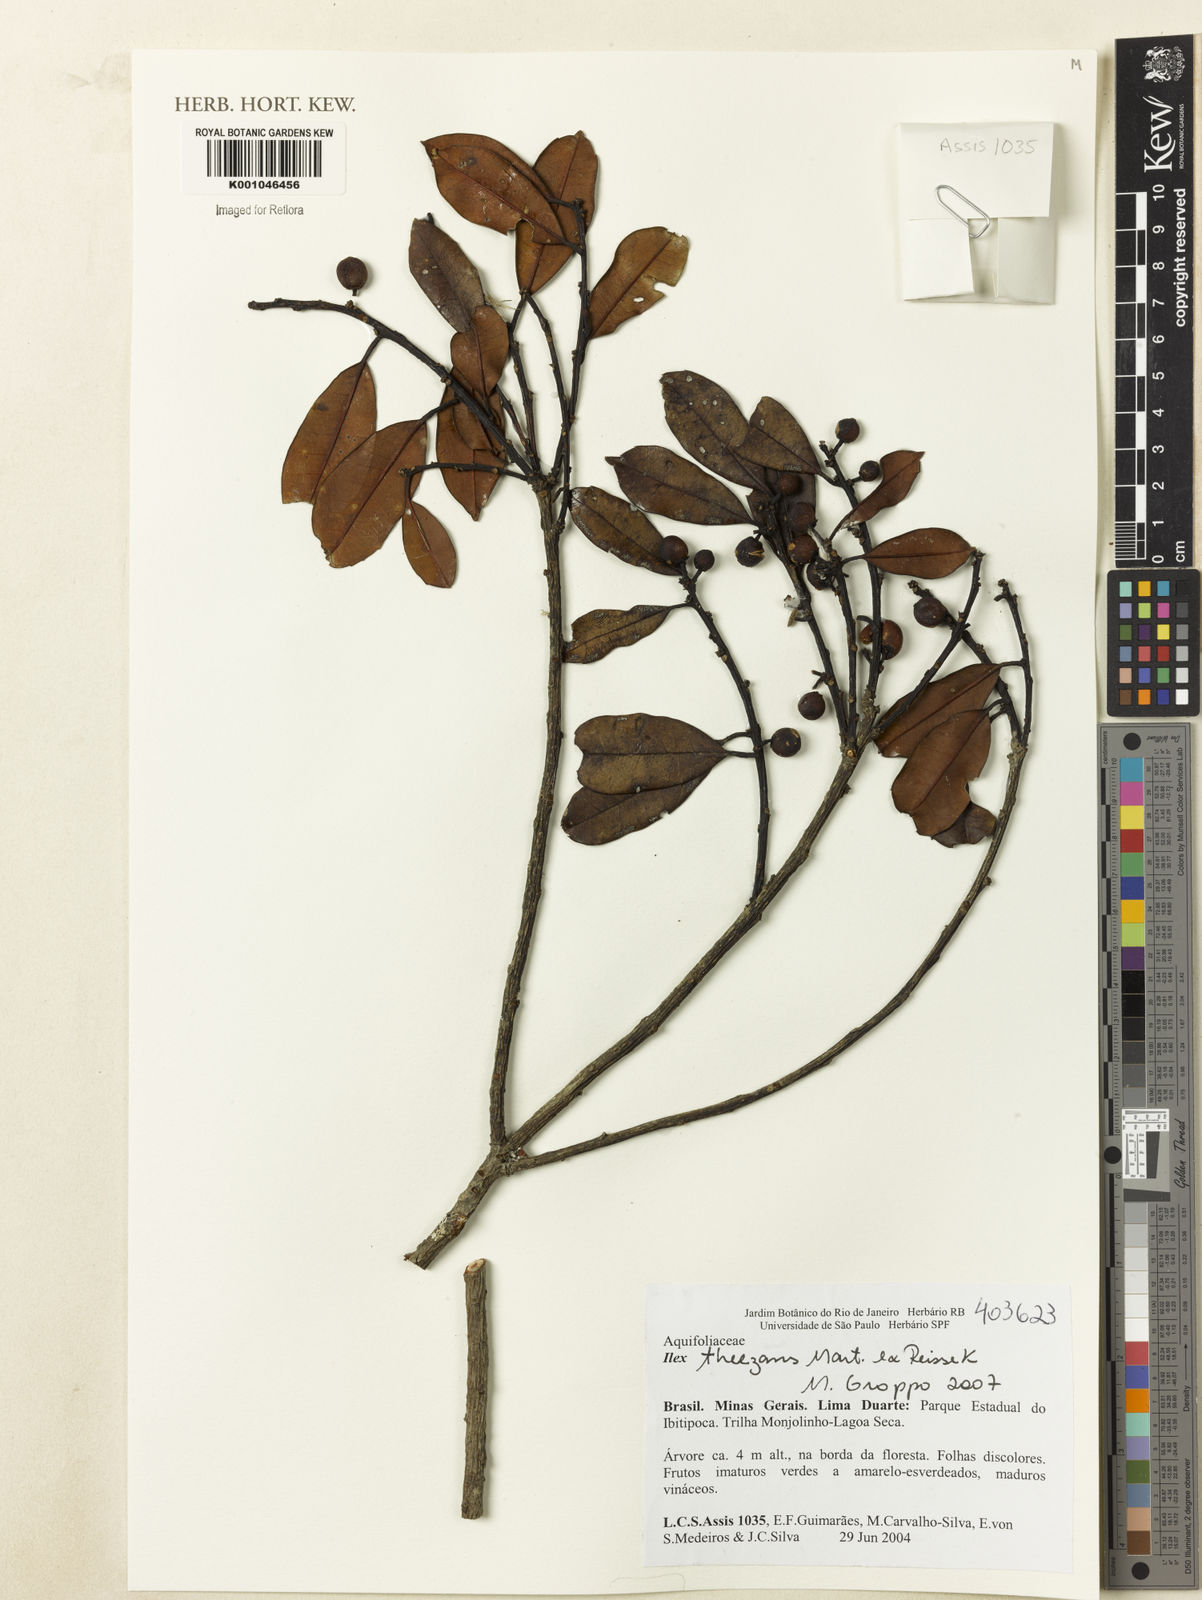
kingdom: Plantae
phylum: Tracheophyta
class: Magnoliopsida
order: Aquifoliales
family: Aquifoliaceae
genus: Ilex
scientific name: Ilex paraguariensis
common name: Paraguay tea
